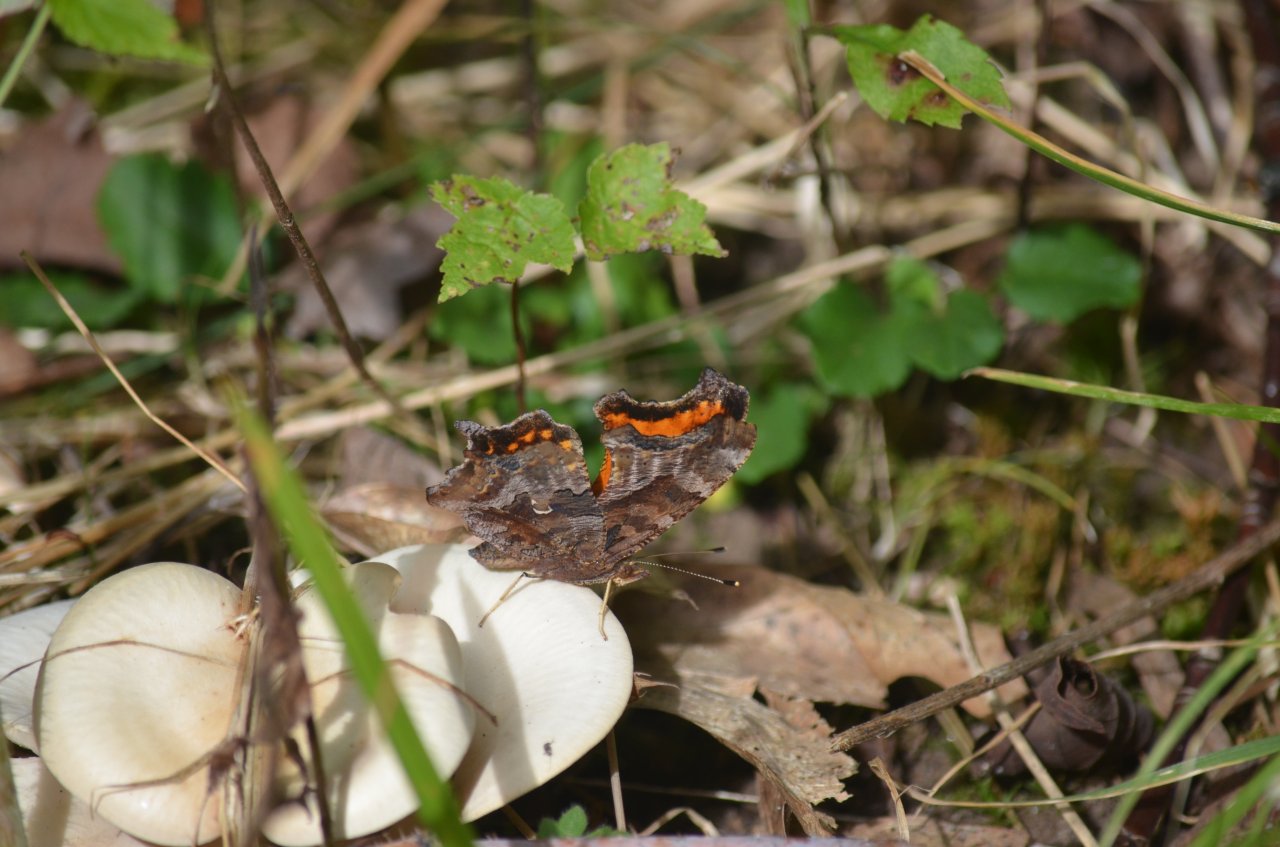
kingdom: Animalia
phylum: Arthropoda
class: Insecta
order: Lepidoptera
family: Nymphalidae
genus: Polygonia
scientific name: Polygonia comma
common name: Eastern Comma
